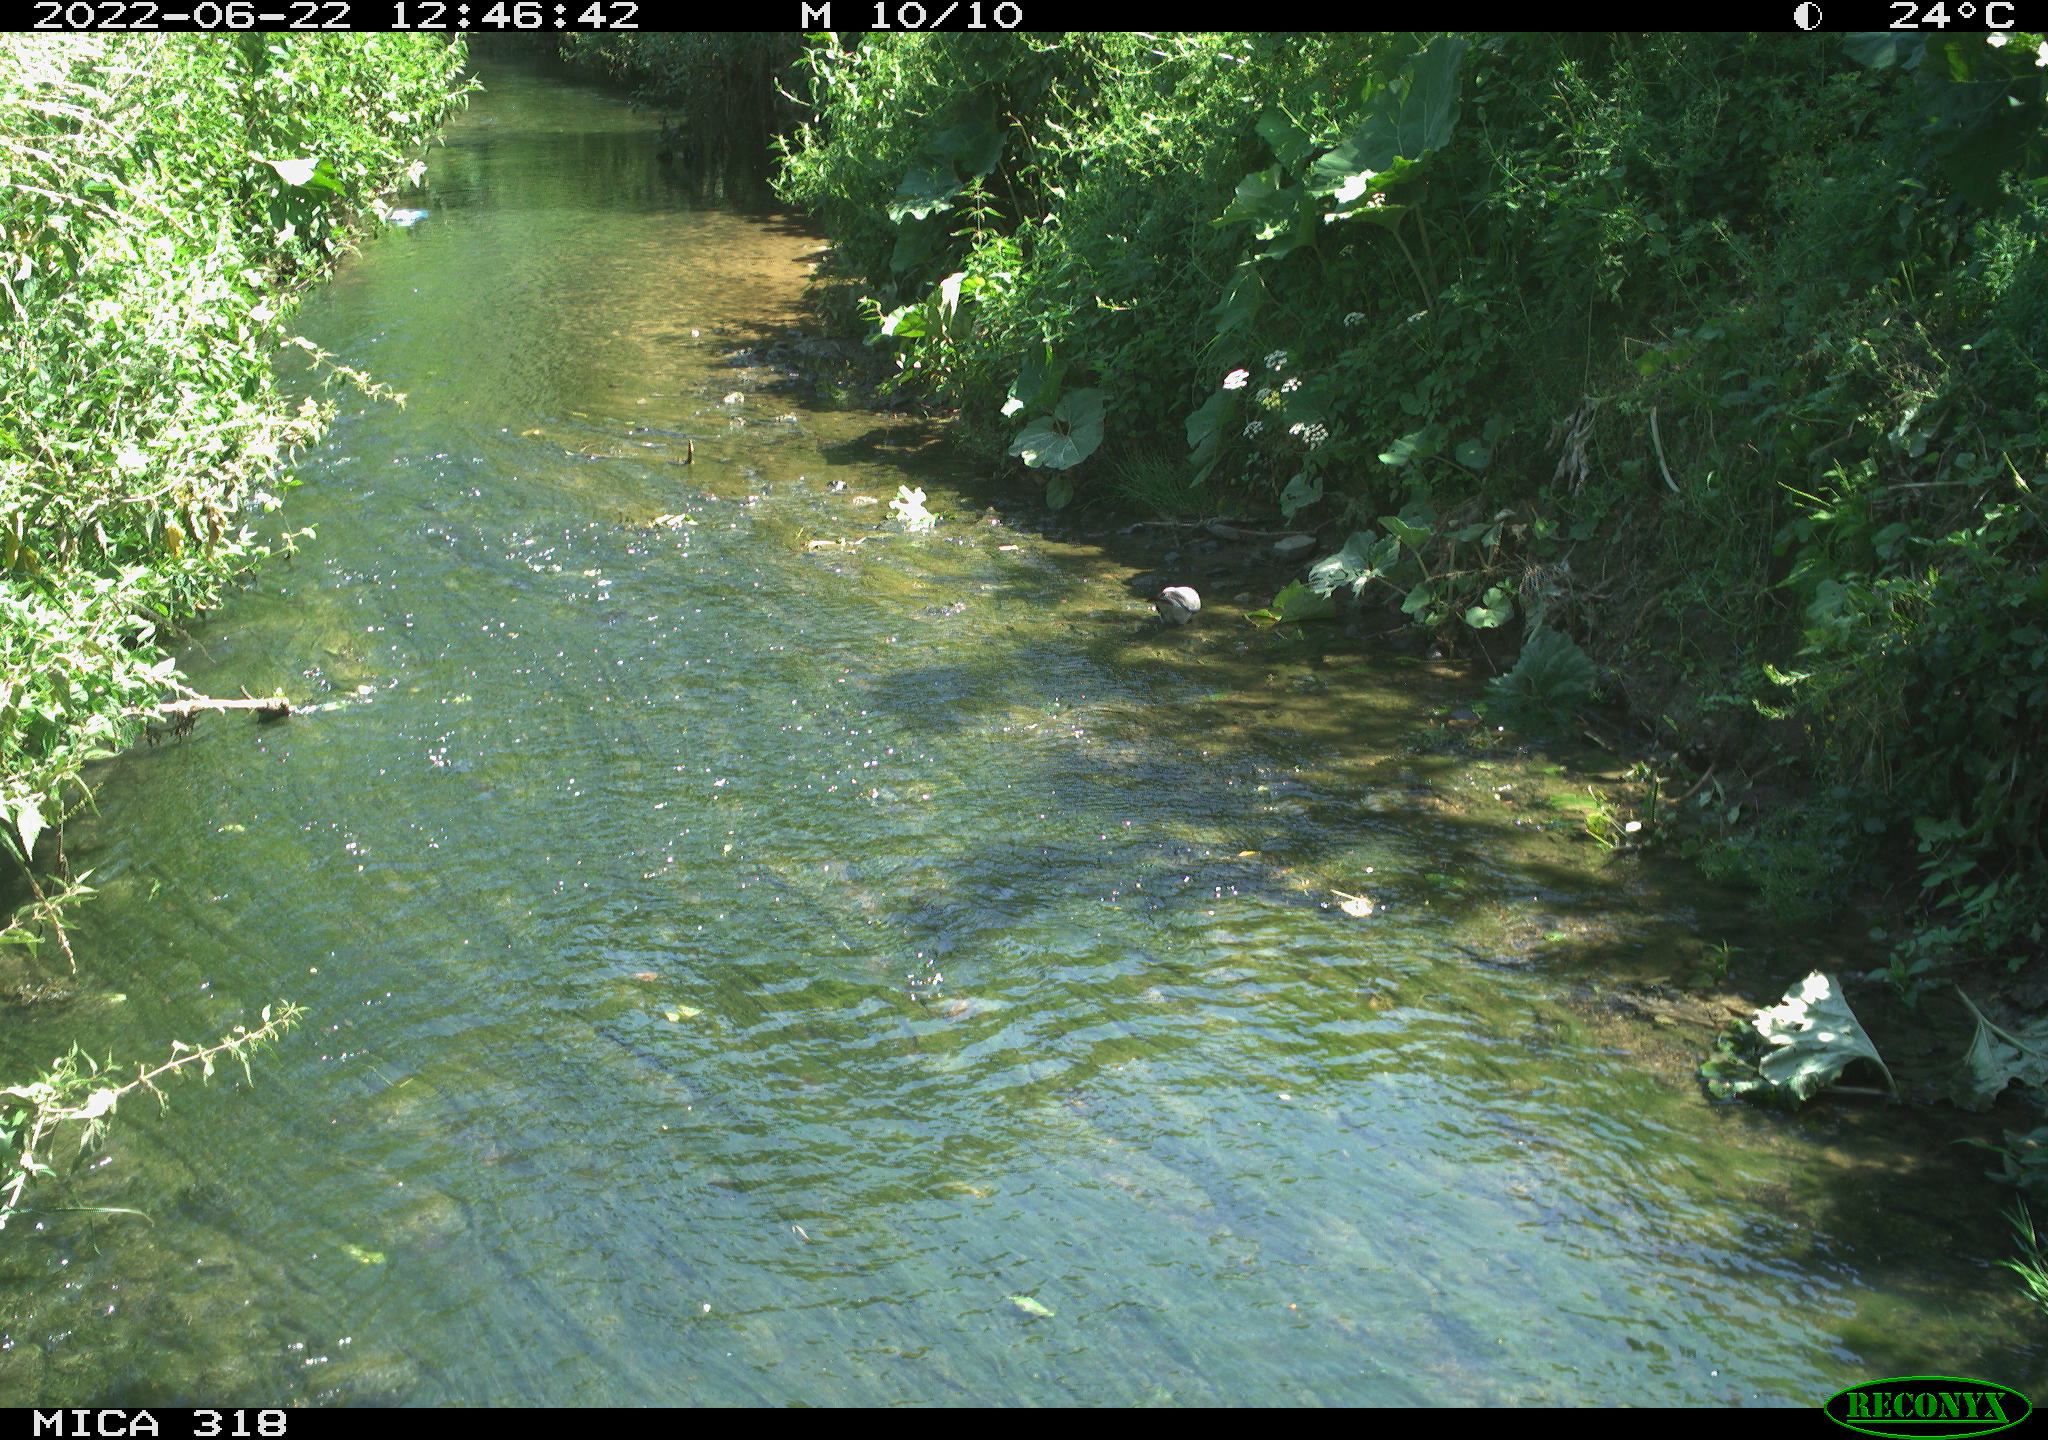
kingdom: Animalia
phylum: Chordata
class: Aves
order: Columbiformes
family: Columbidae
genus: Columba
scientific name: Columba palumbus
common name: Common wood pigeon
